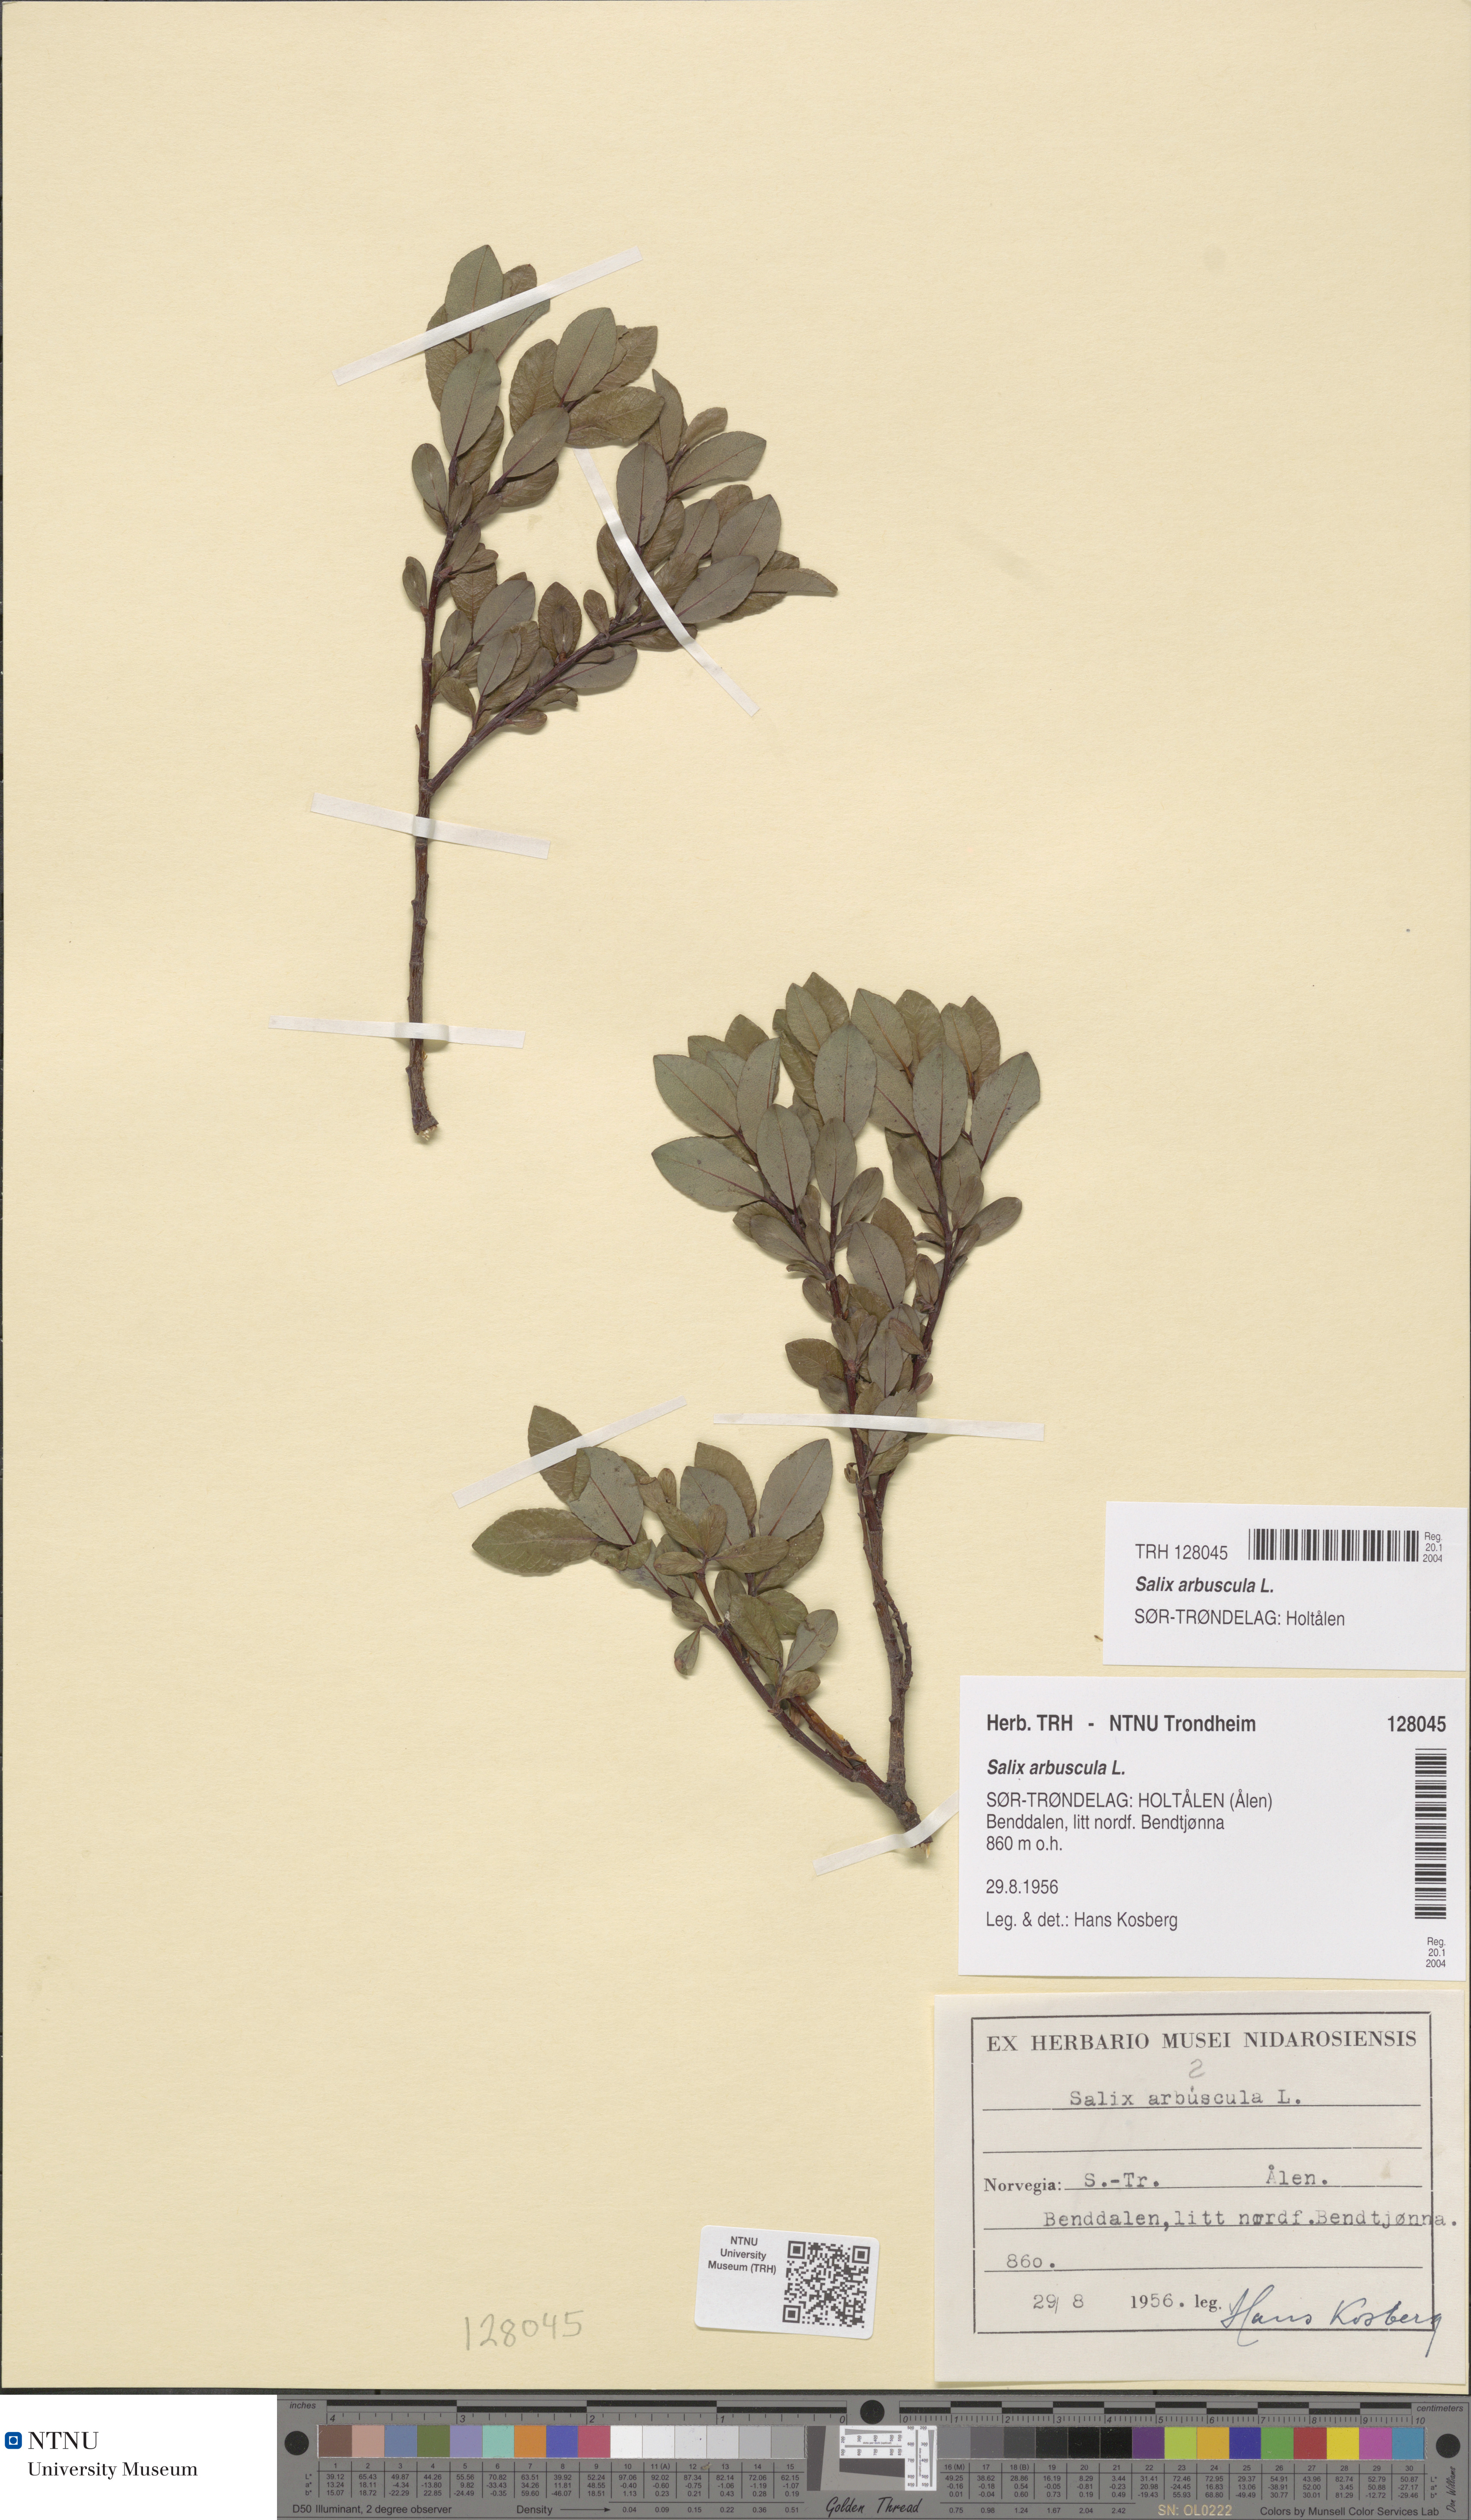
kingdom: Plantae
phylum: Tracheophyta
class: Magnoliopsida
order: Malpighiales
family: Salicaceae
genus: Salix
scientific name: Salix arbuscula
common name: Mountain willow
